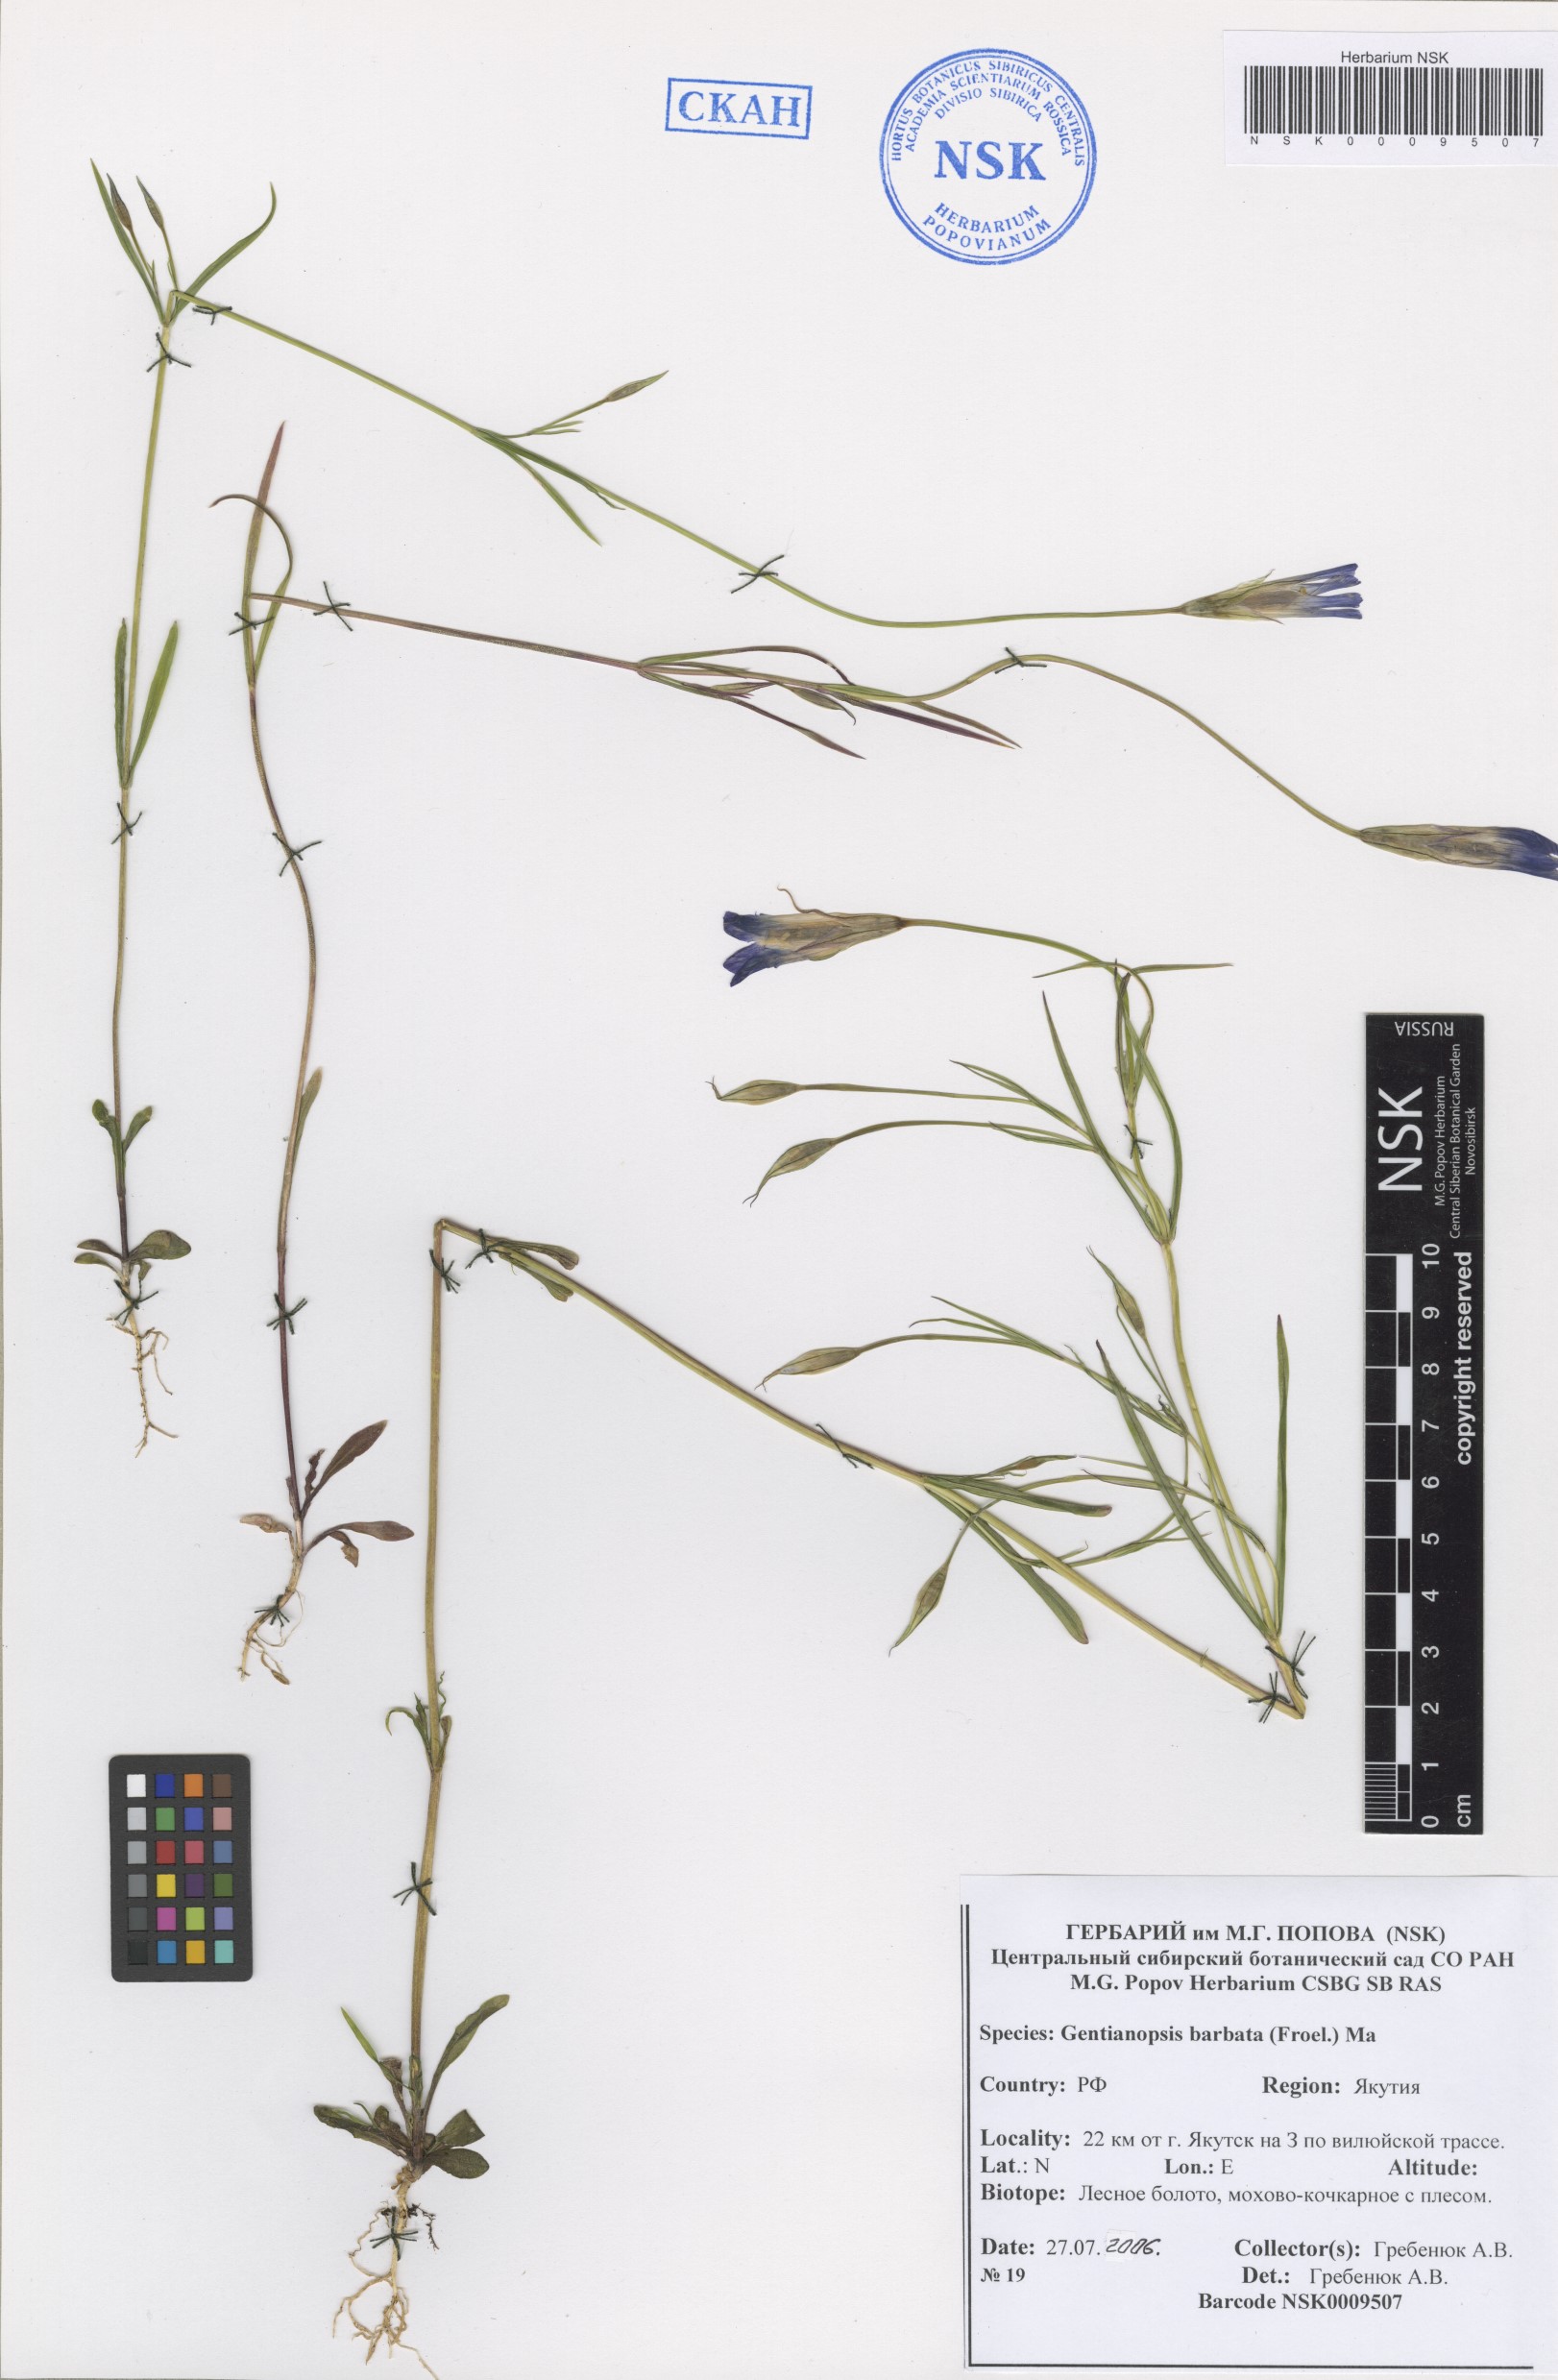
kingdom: Plantae
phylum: Tracheophyta
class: Magnoliopsida
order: Gentianales
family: Gentianaceae
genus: Gentianopsis
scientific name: Gentianopsis barbata
